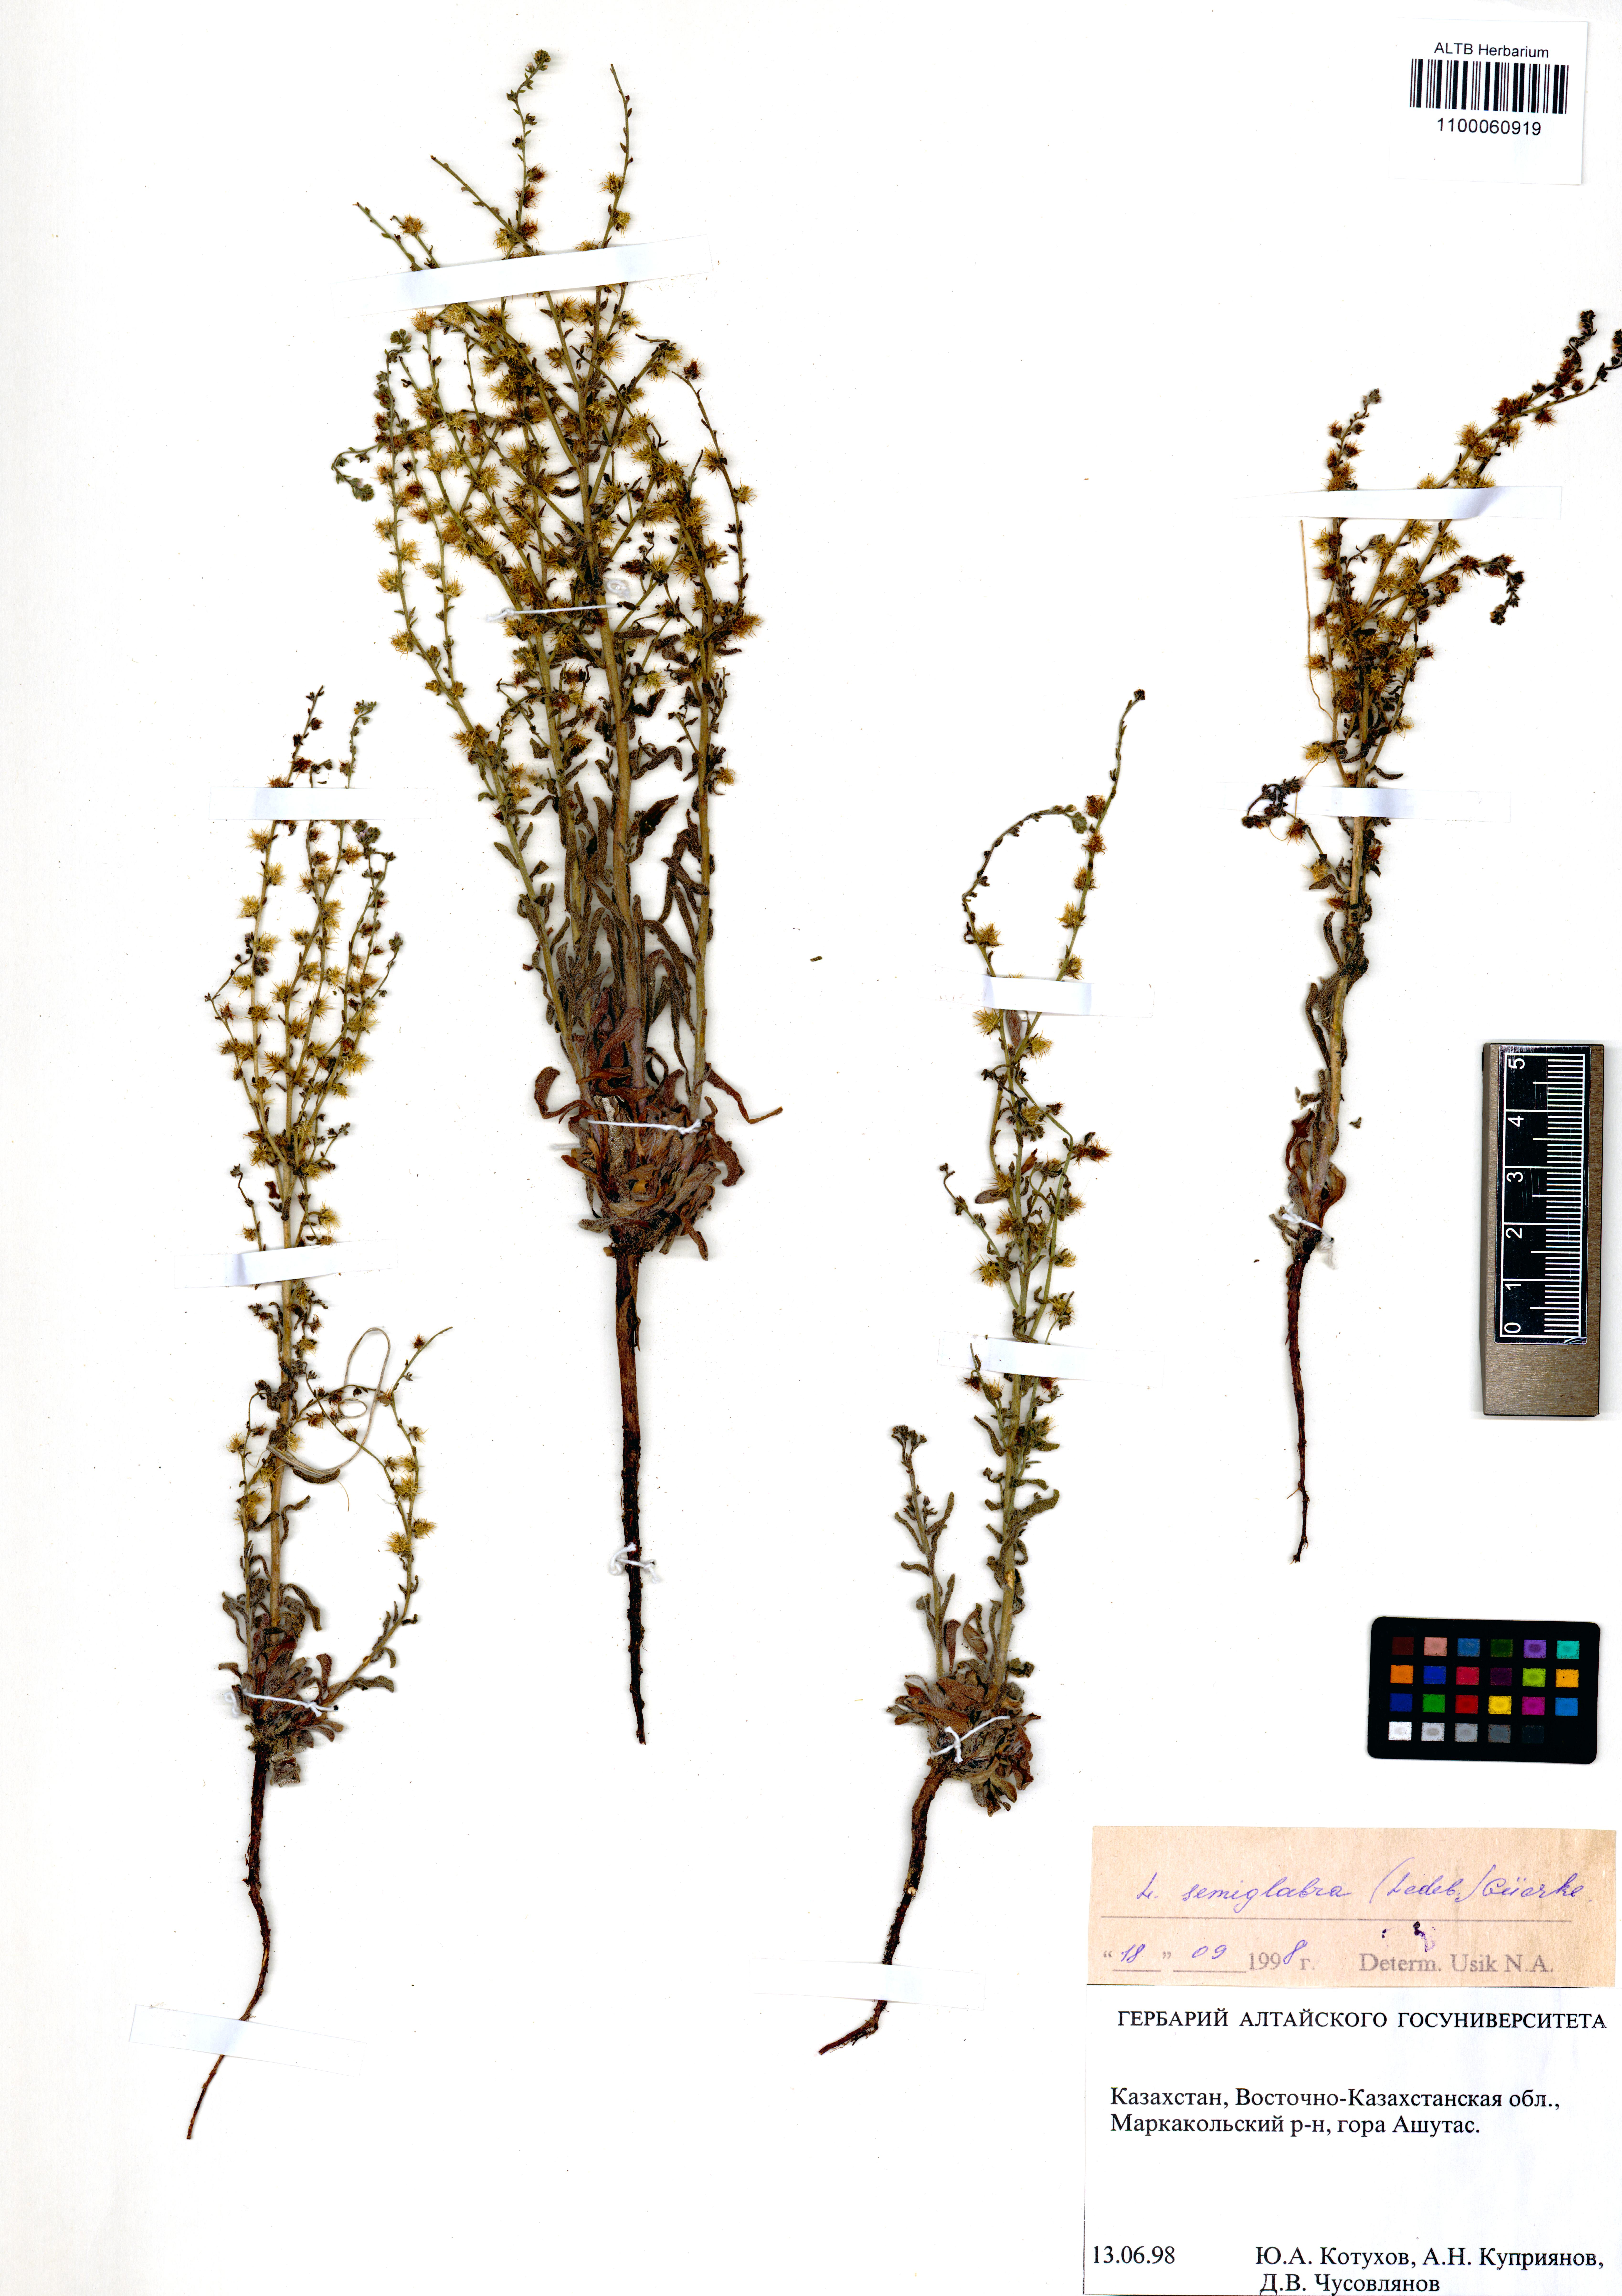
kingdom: Plantae
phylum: Tracheophyta
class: Magnoliopsida
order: Boraginales
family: Boraginaceae
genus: Lappula
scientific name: Lappula patula
